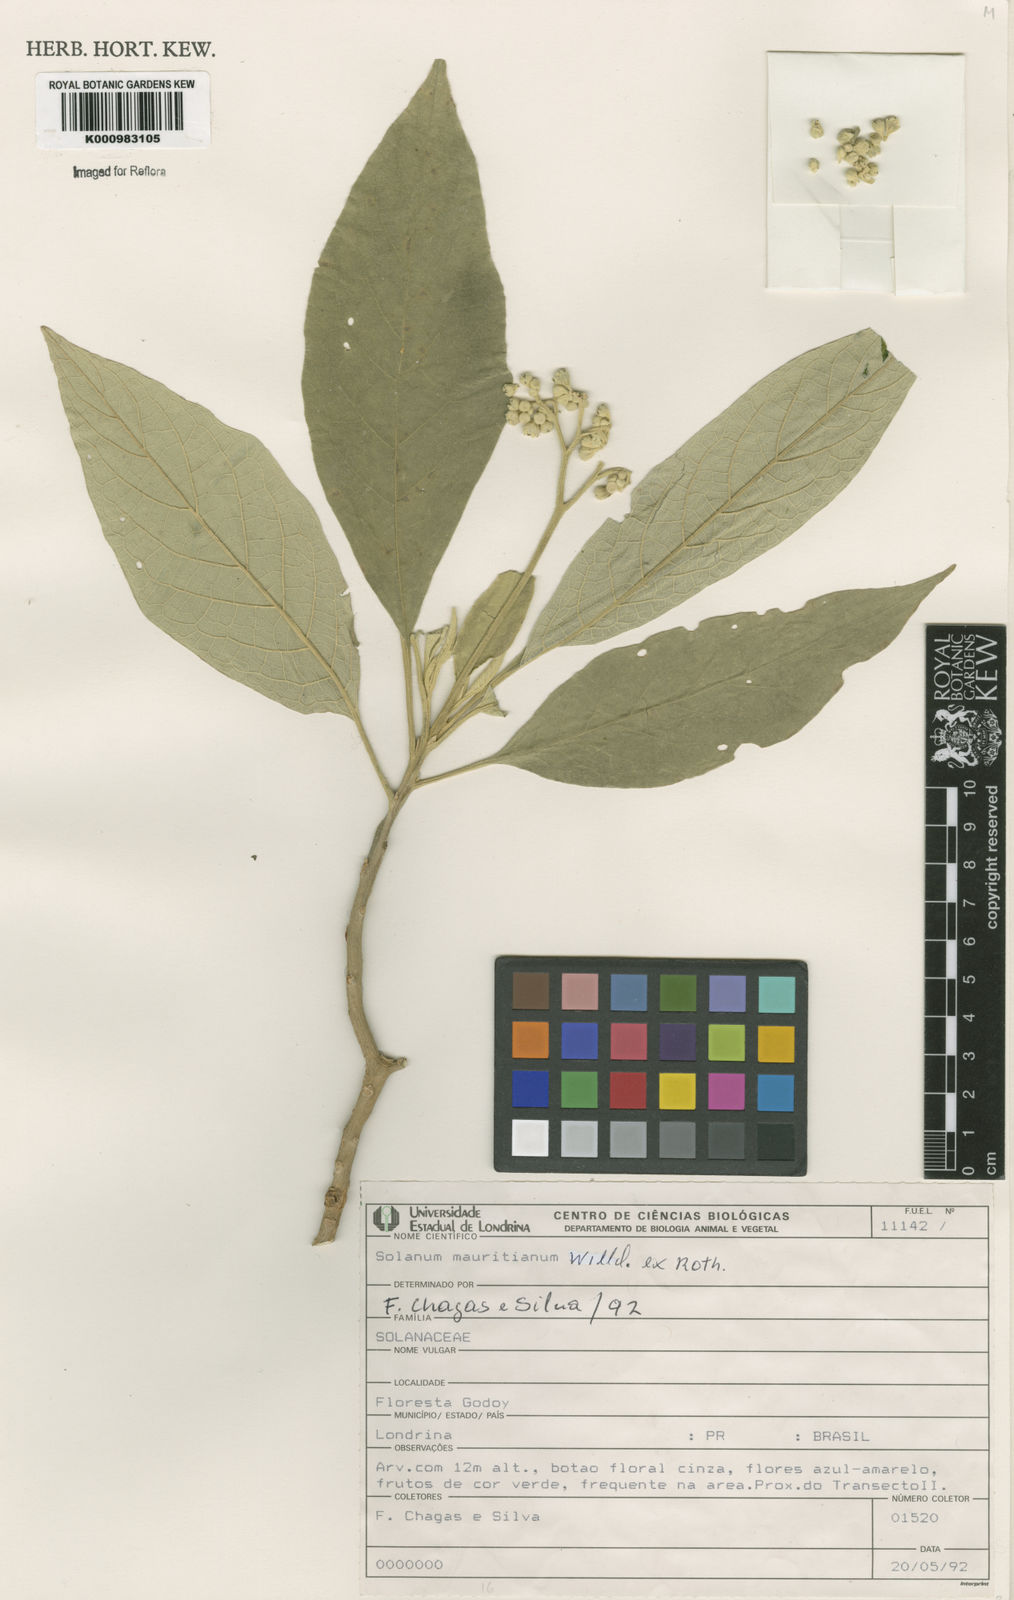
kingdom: Plantae
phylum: Tracheophyta
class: Magnoliopsida
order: Solanales
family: Solanaceae
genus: Solanum
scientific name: Solanum mauritianum
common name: Earleaf nightshade
